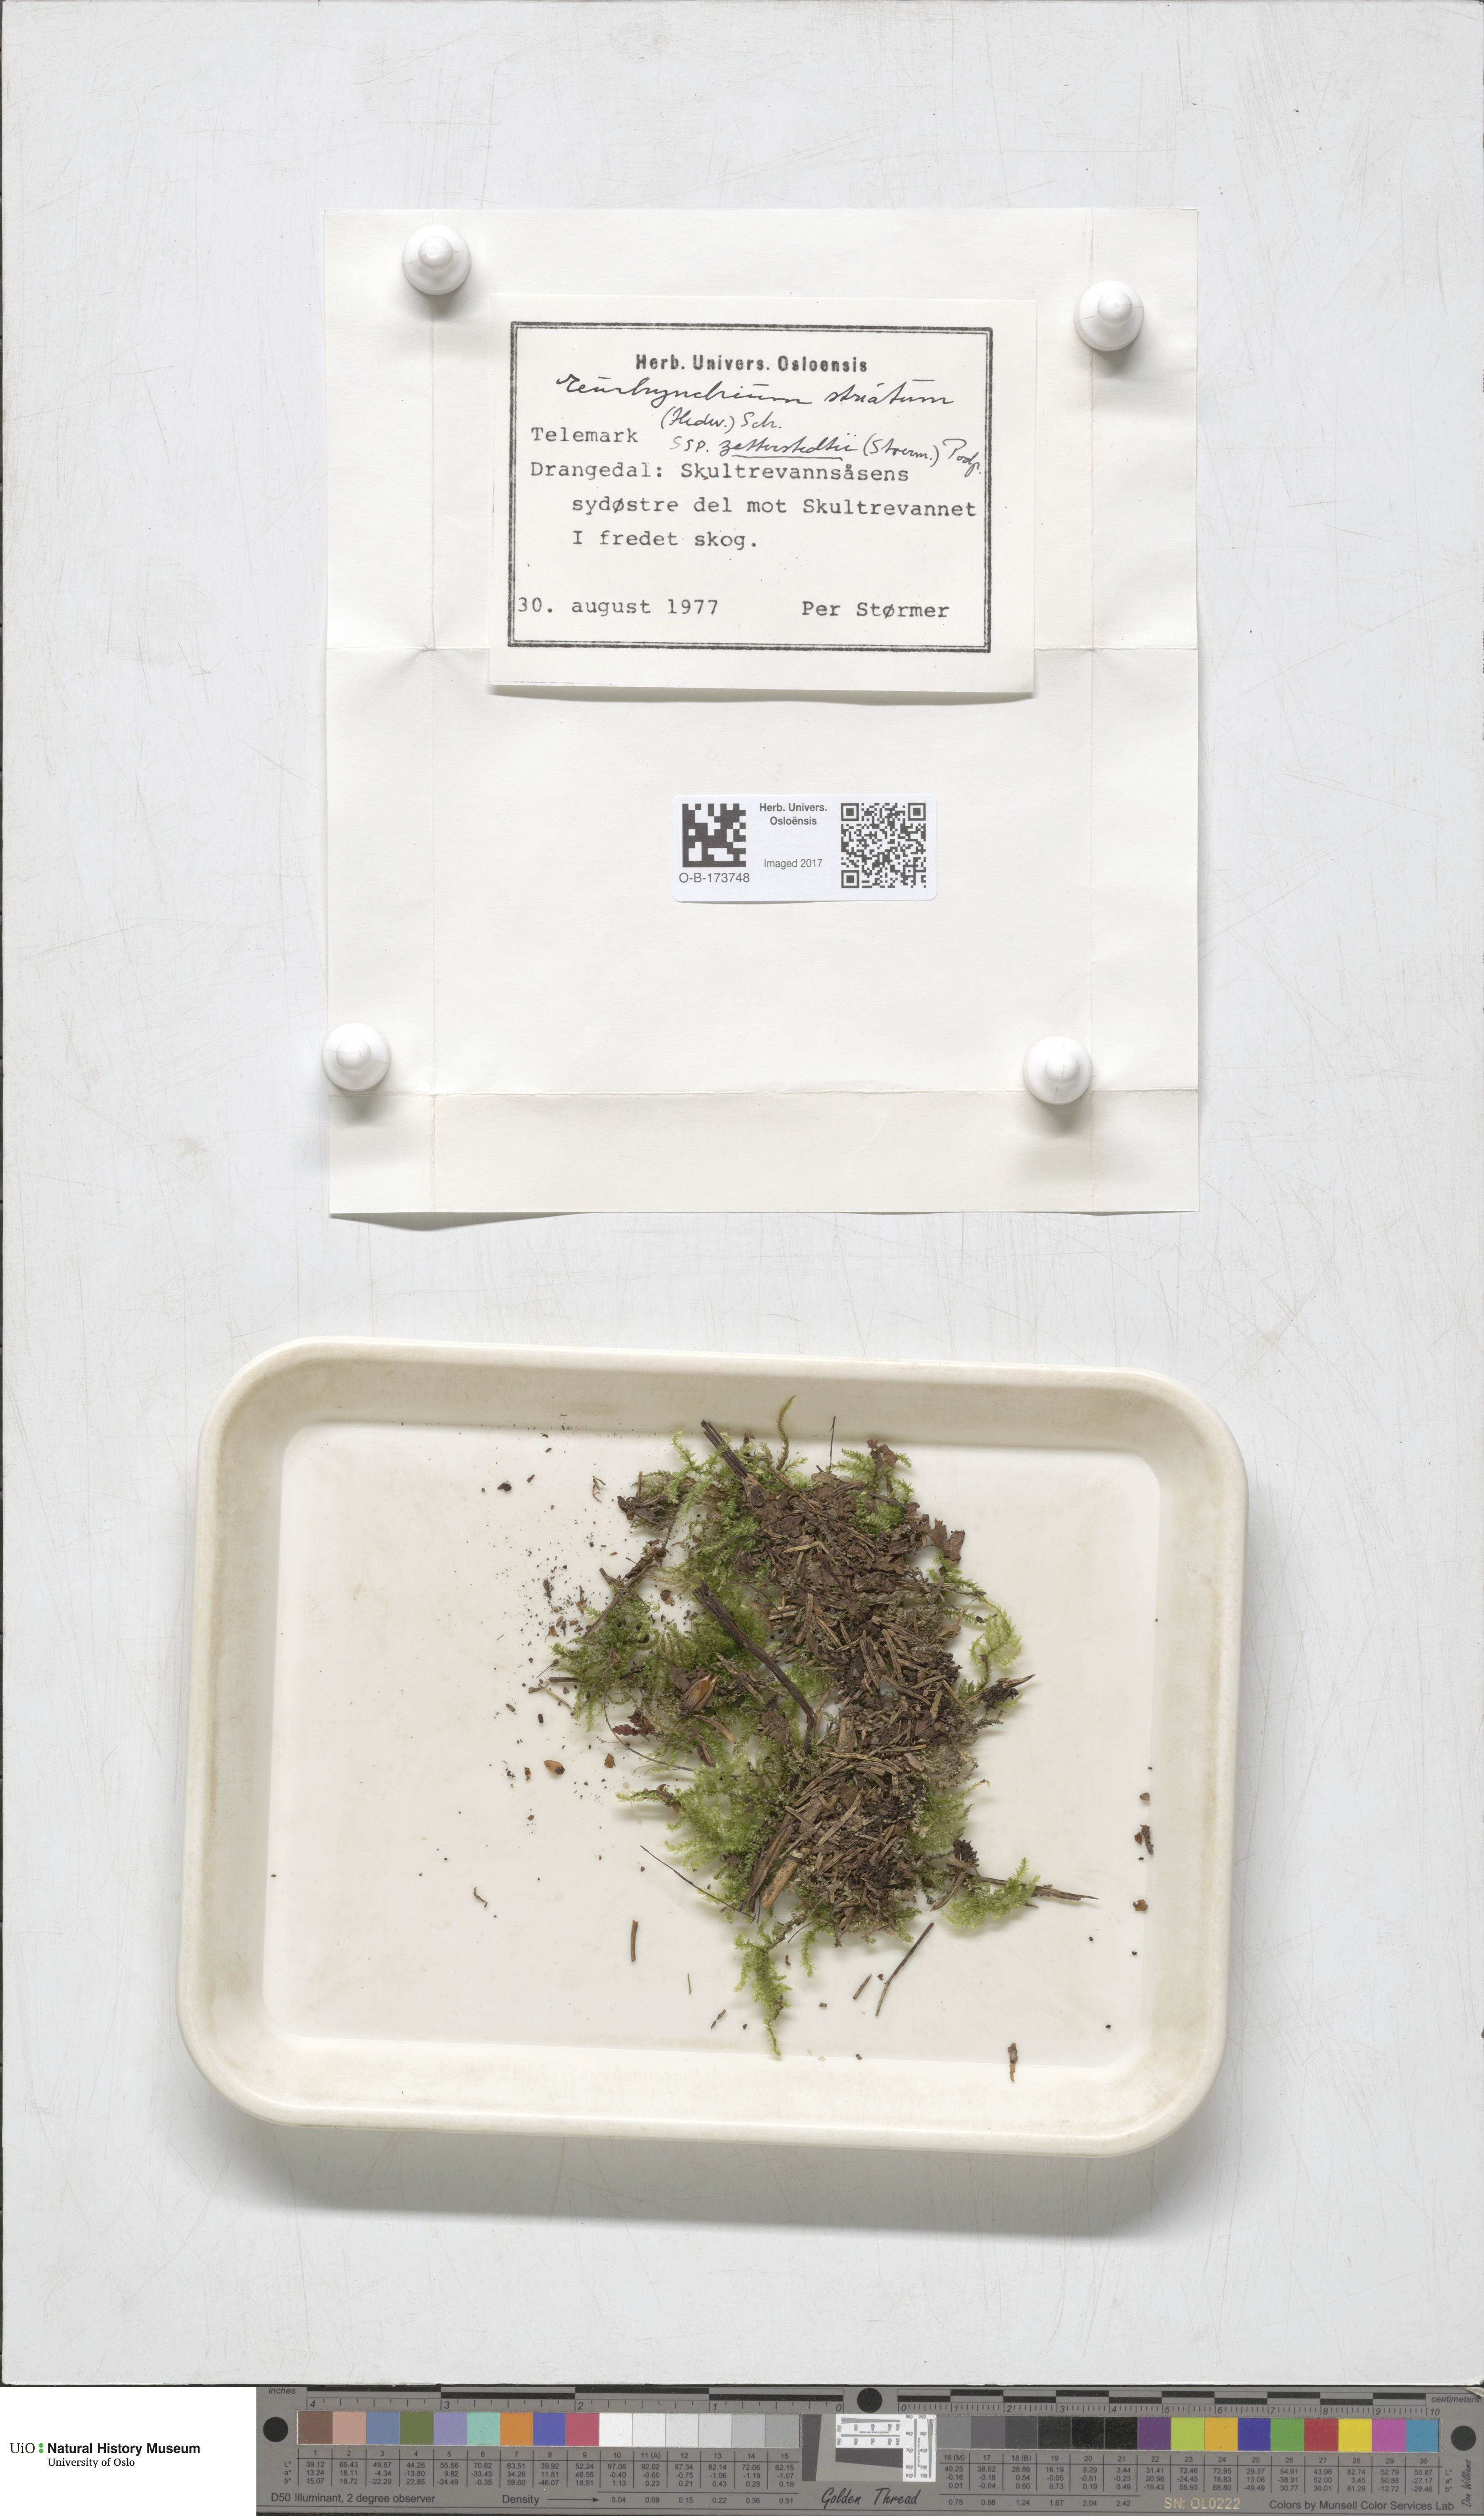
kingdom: Plantae
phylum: Bryophyta
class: Bryopsida
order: Hypnales
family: Brachytheciaceae
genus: Eurhynchium
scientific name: Eurhynchium angustirete
